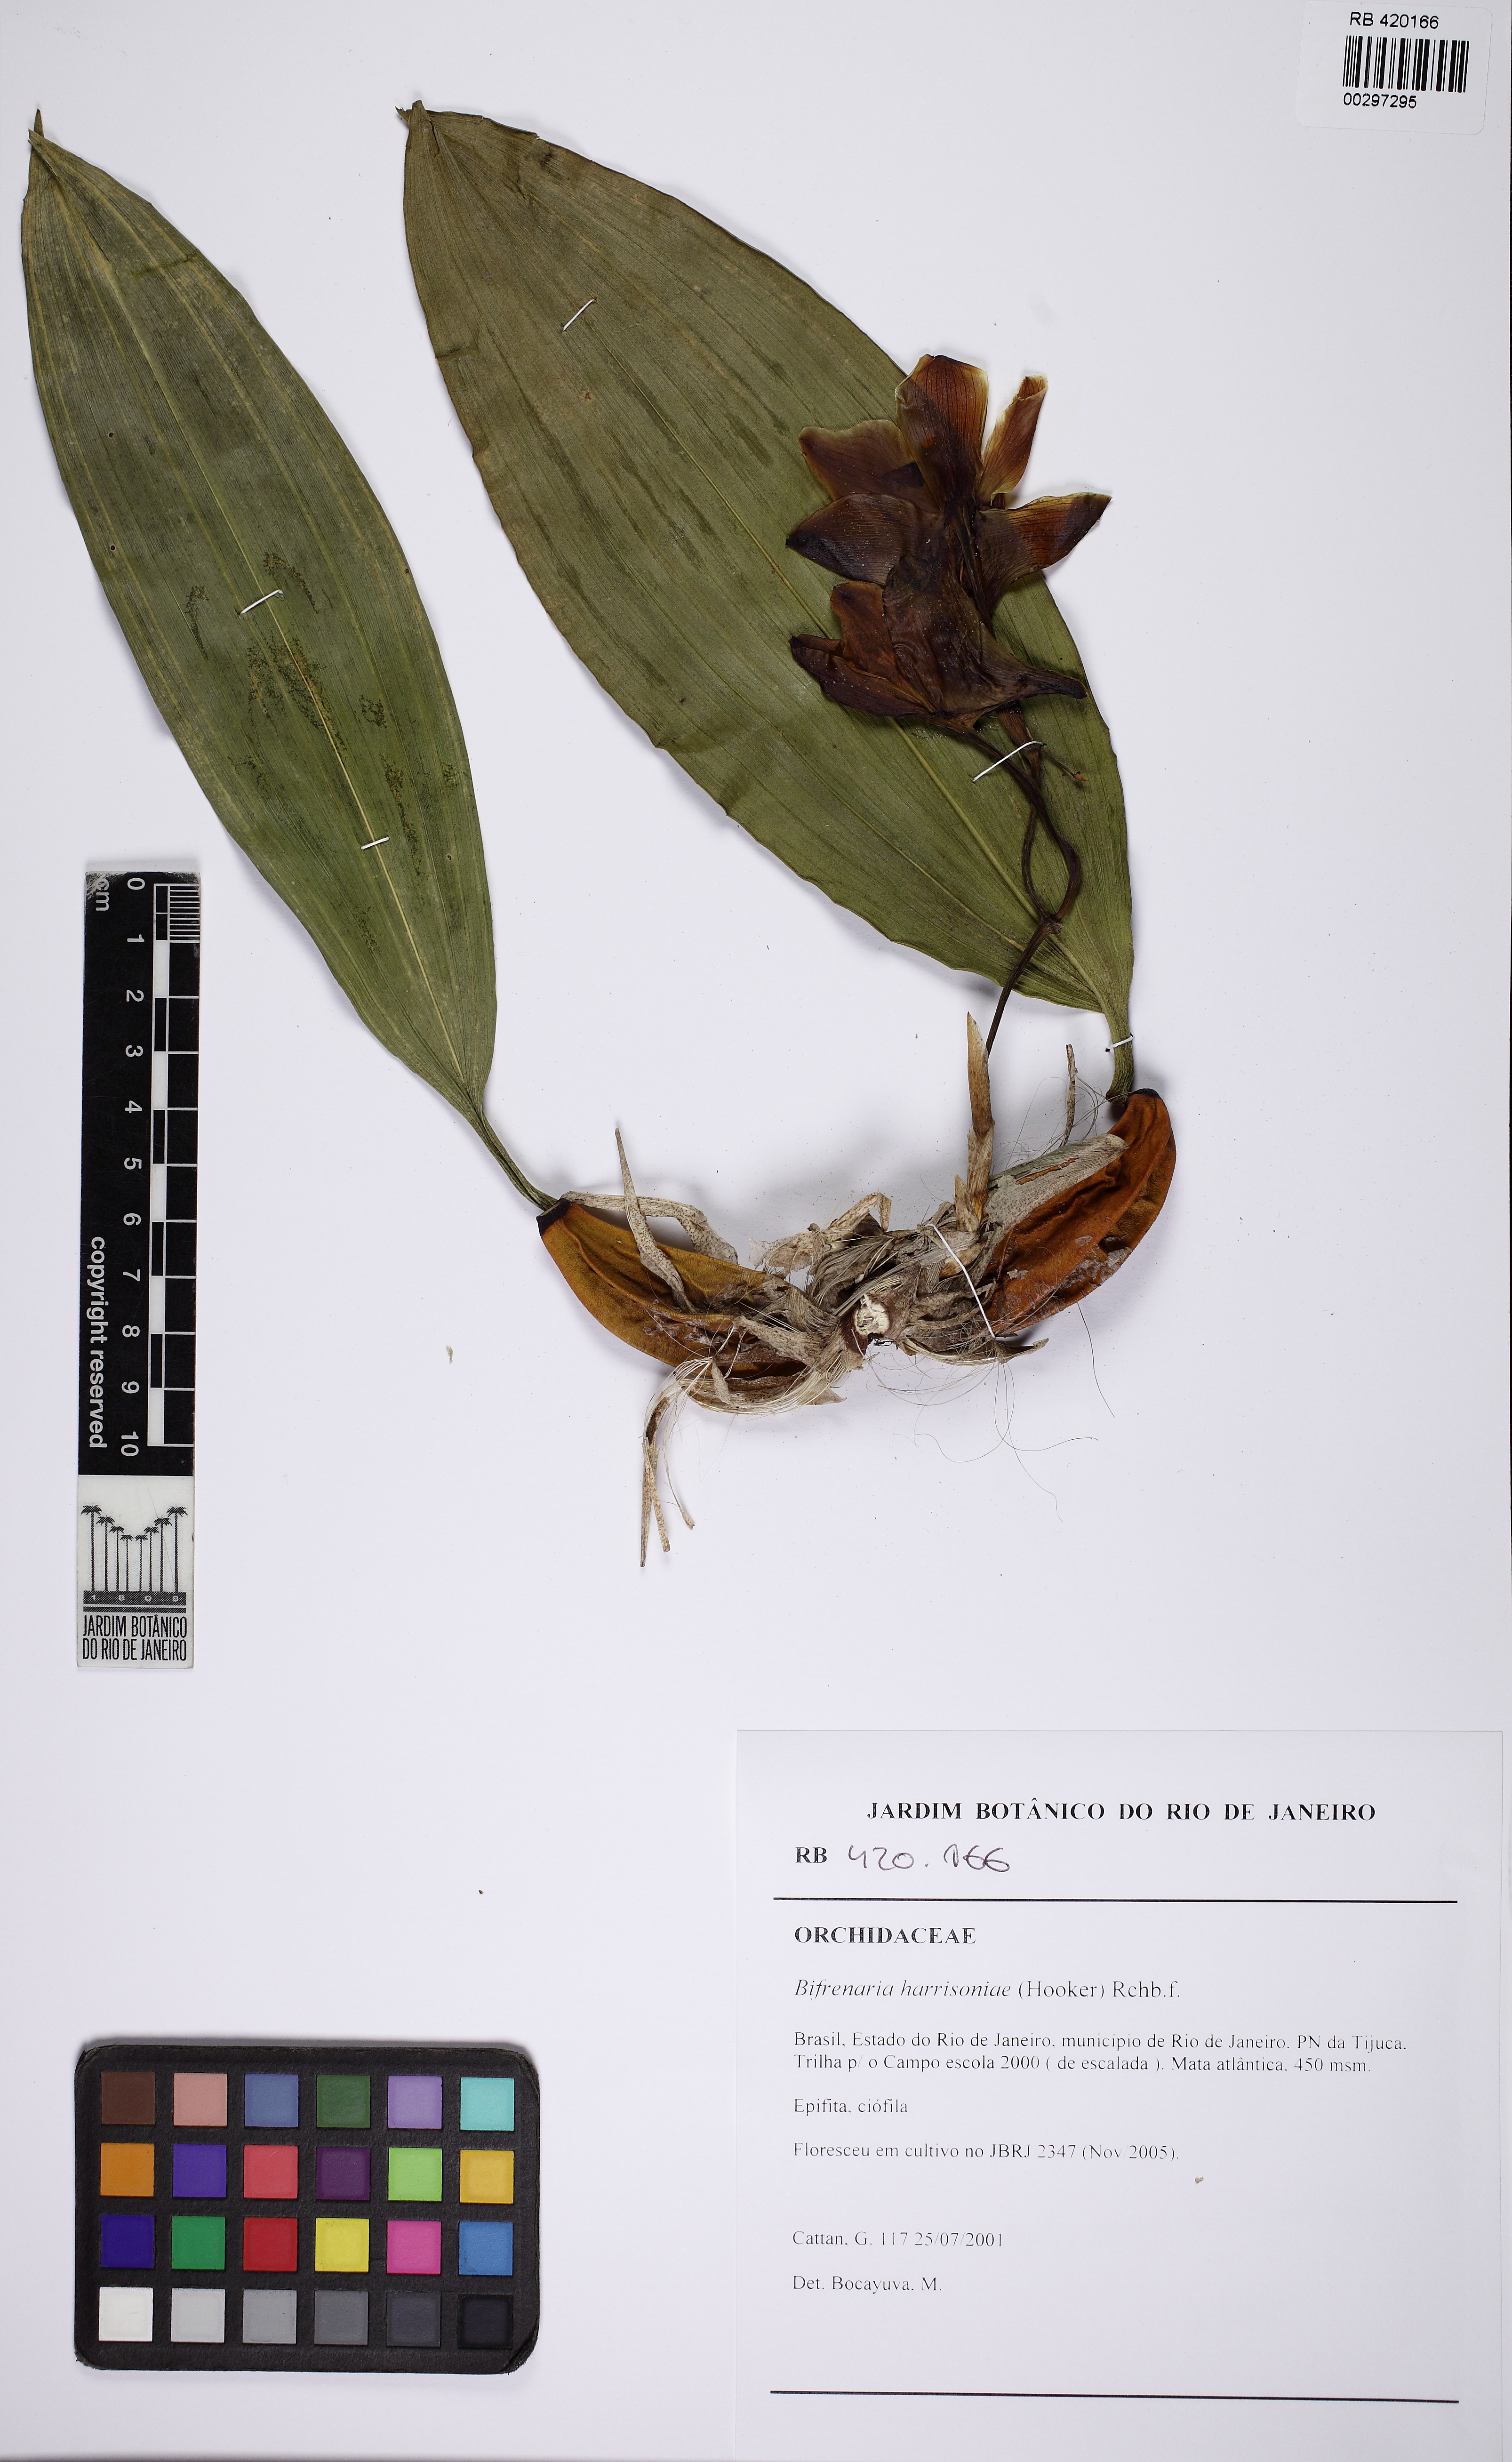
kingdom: Plantae
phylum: Tracheophyta
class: Liliopsida
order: Asparagales
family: Orchidaceae
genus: Bifrenaria
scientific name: Bifrenaria harrisoniae
